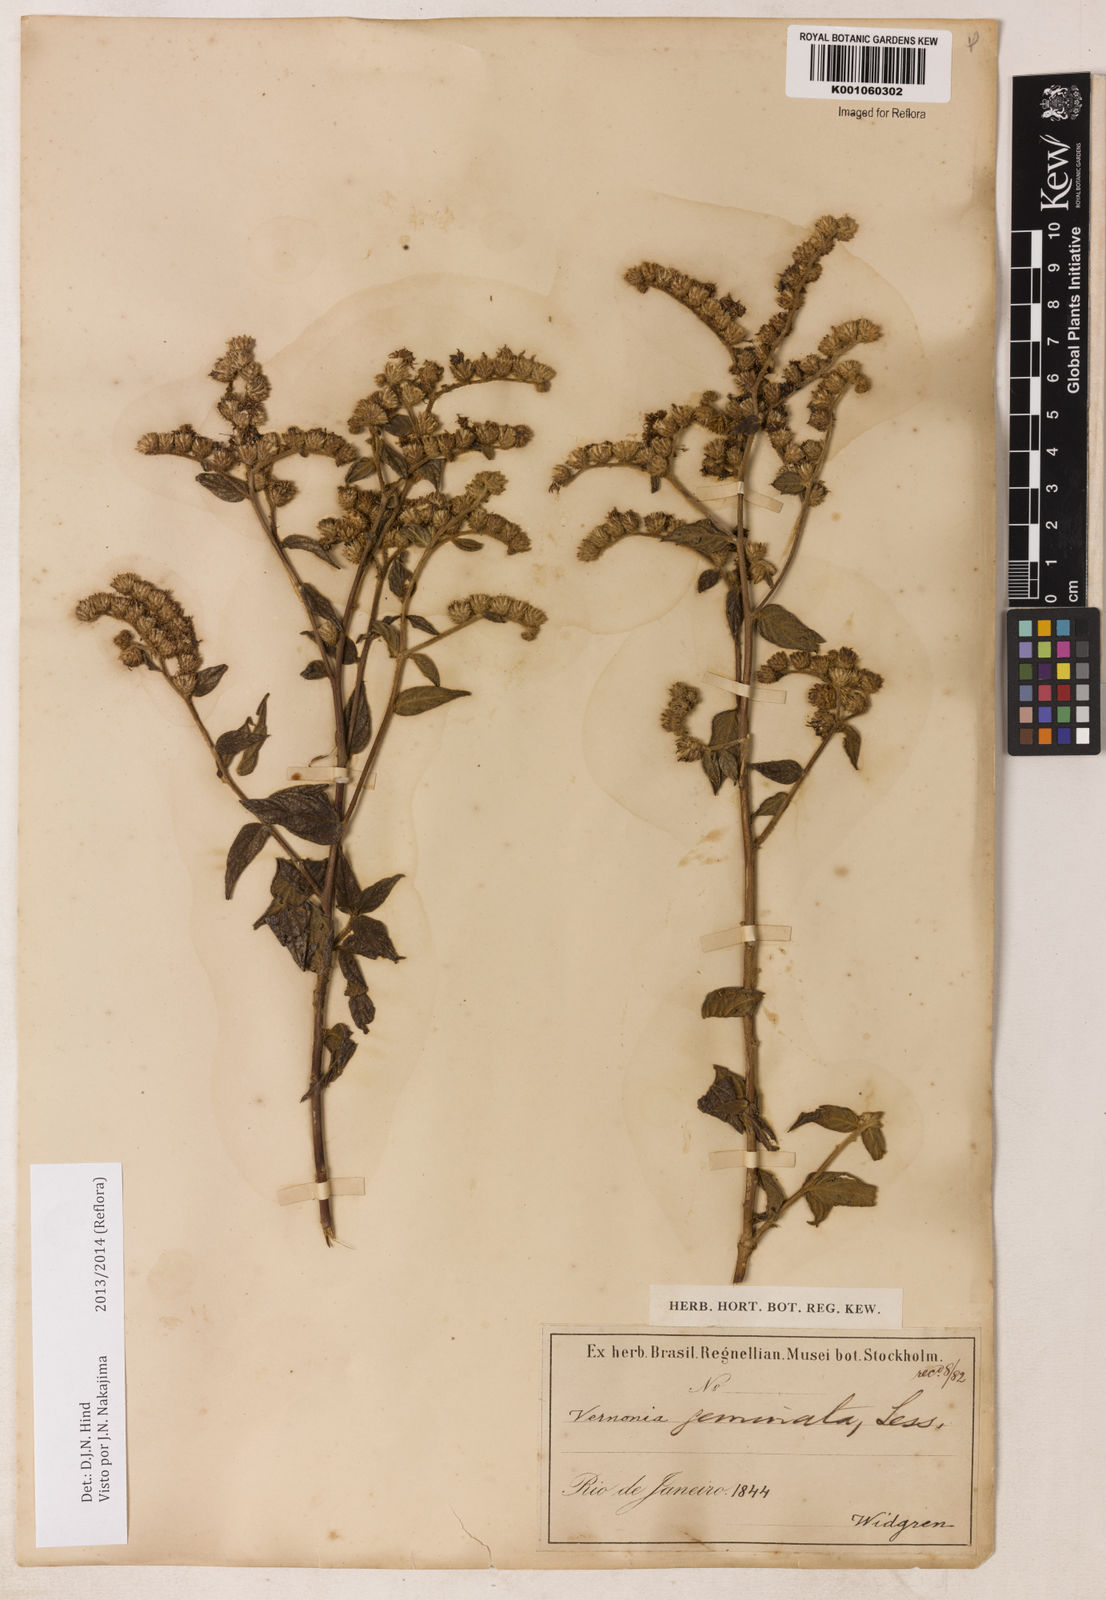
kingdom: Plantae
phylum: Tracheophyta
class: Magnoliopsida
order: Asterales
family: Asteraceae
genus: Lepidaploa
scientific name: Lepidaploa canescens
